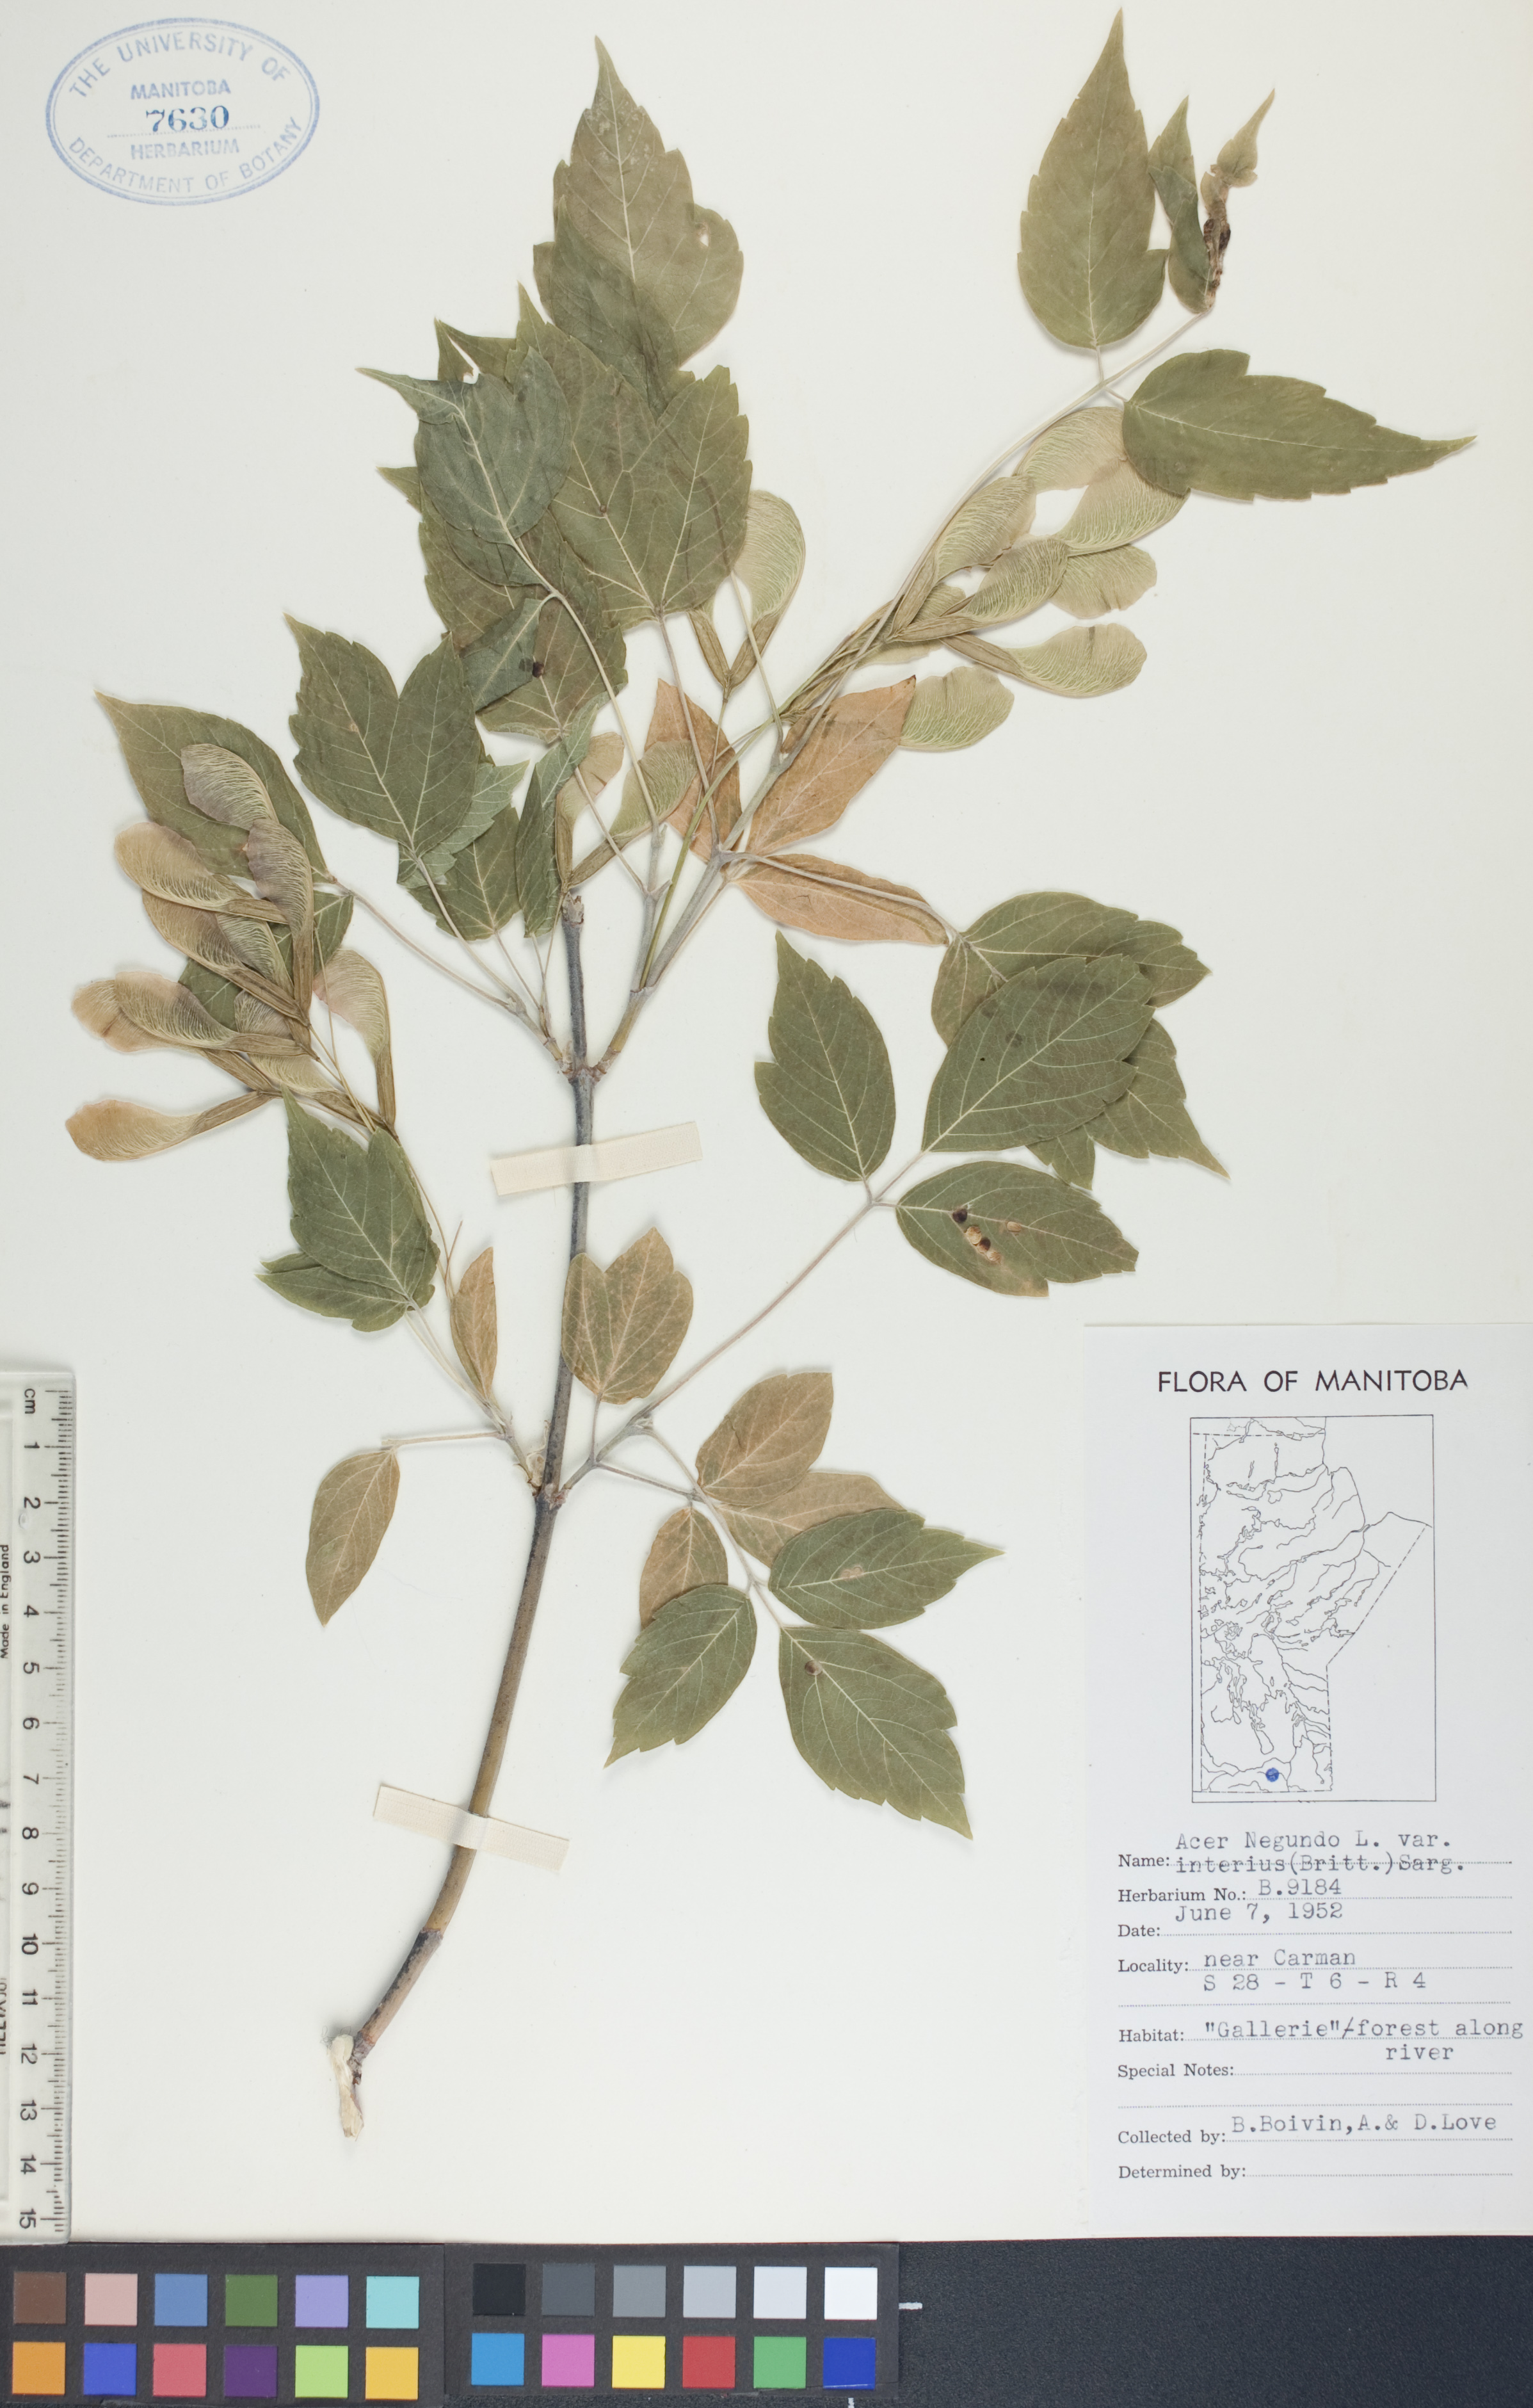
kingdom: Plantae
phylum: Tracheophyta
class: Magnoliopsida
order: Sapindales
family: Sapindaceae
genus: Acer
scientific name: Acer negundo
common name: Ashleaf maple
